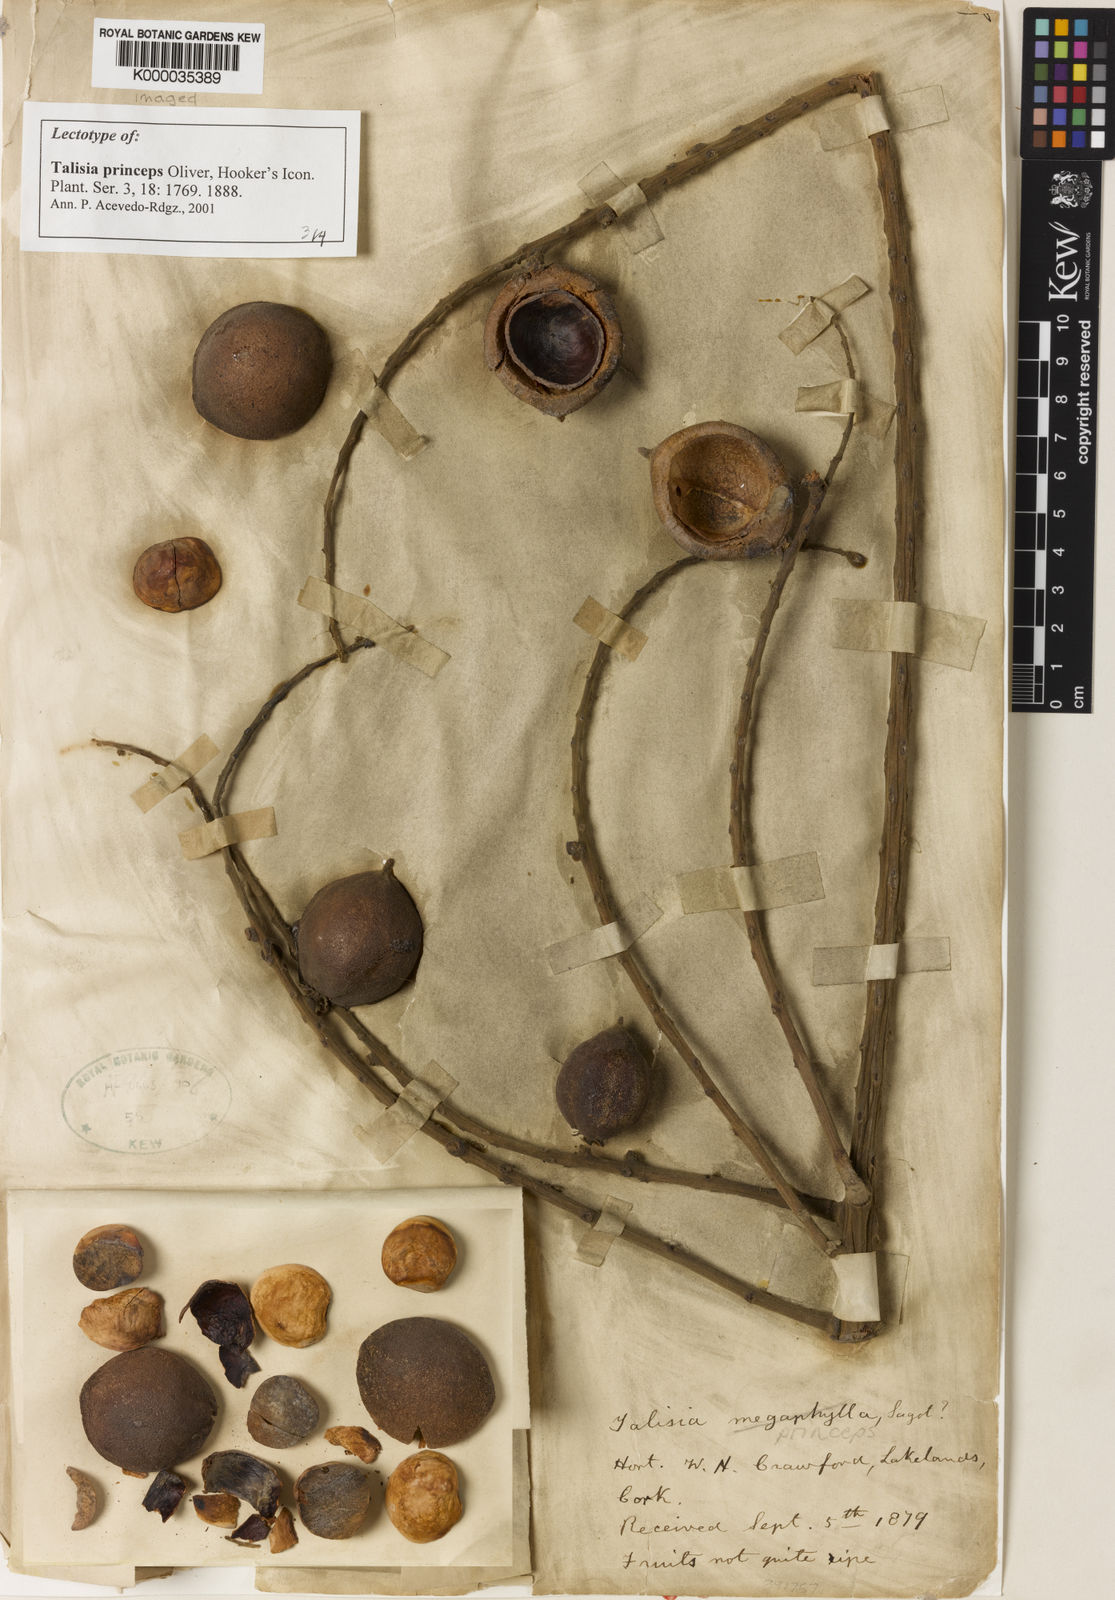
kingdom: Plantae
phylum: Tracheophyta
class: Magnoliopsida
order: Sapindales
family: Sapindaceae
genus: Talisia
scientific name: Talisia princeps
